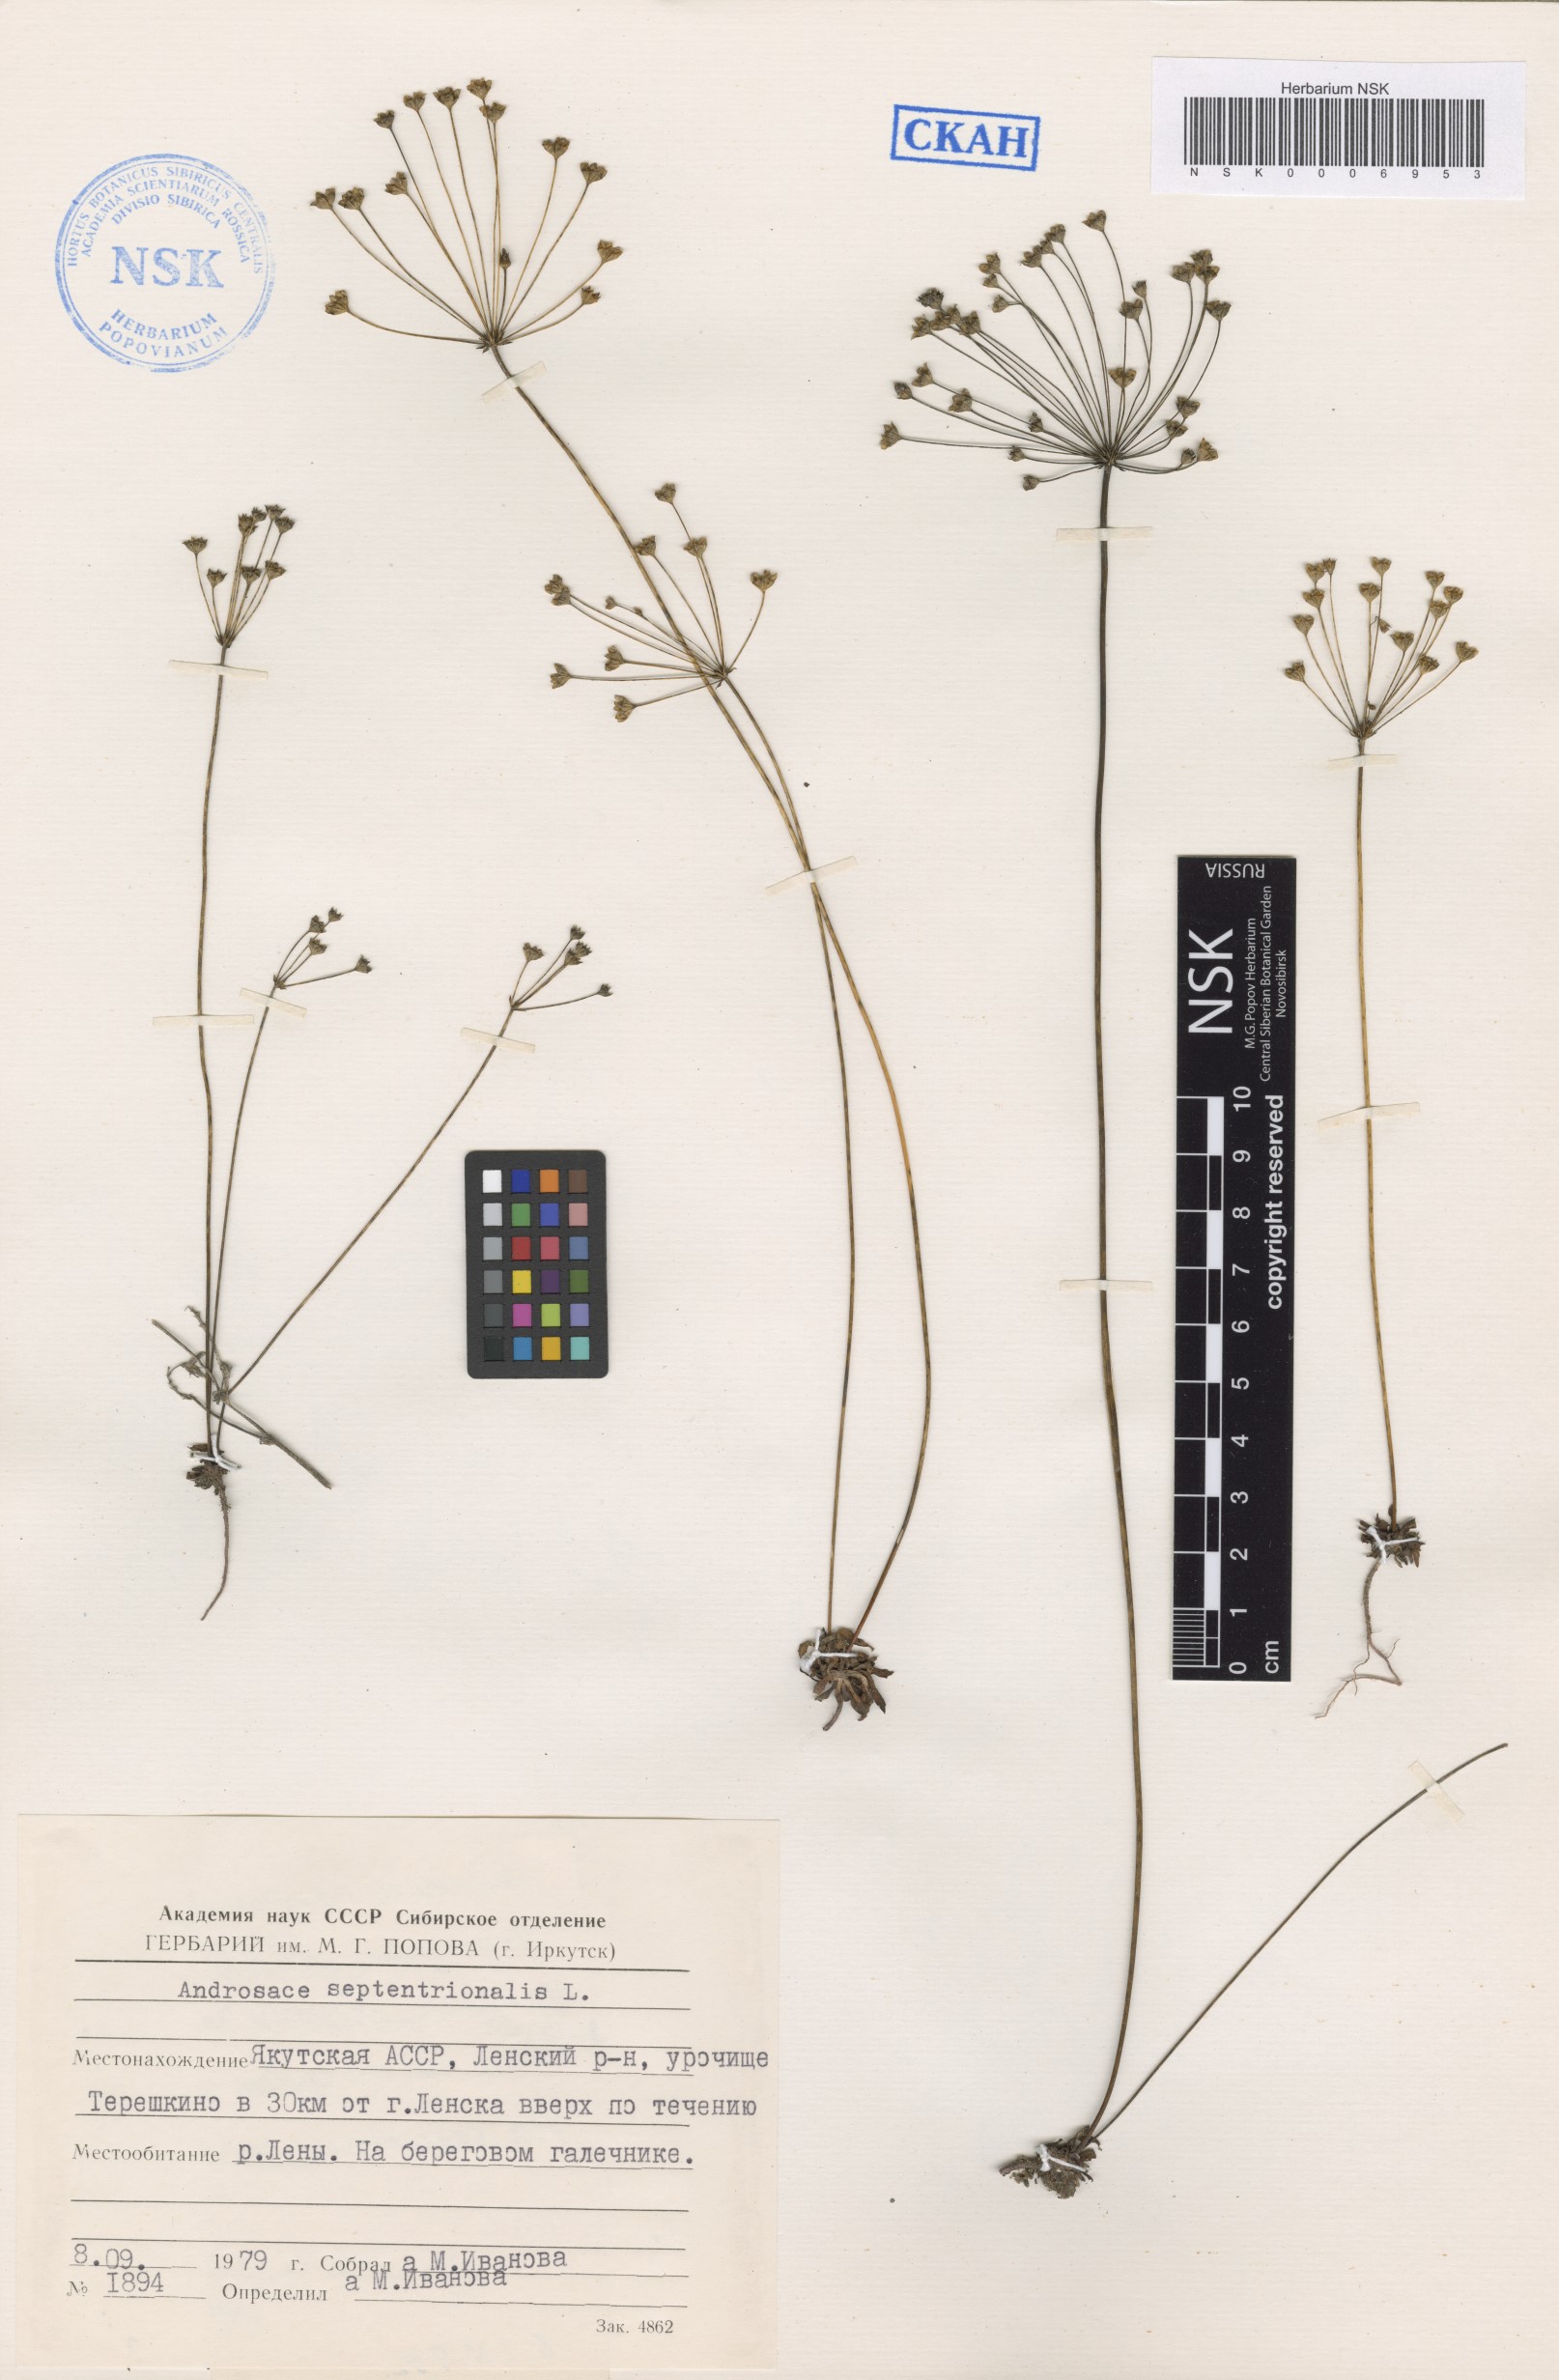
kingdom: Plantae
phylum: Tracheophyta
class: Magnoliopsida
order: Ericales
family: Primulaceae
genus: Androsace
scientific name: Androsace septentrionalis
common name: Hairy northern fairy-candelabra
